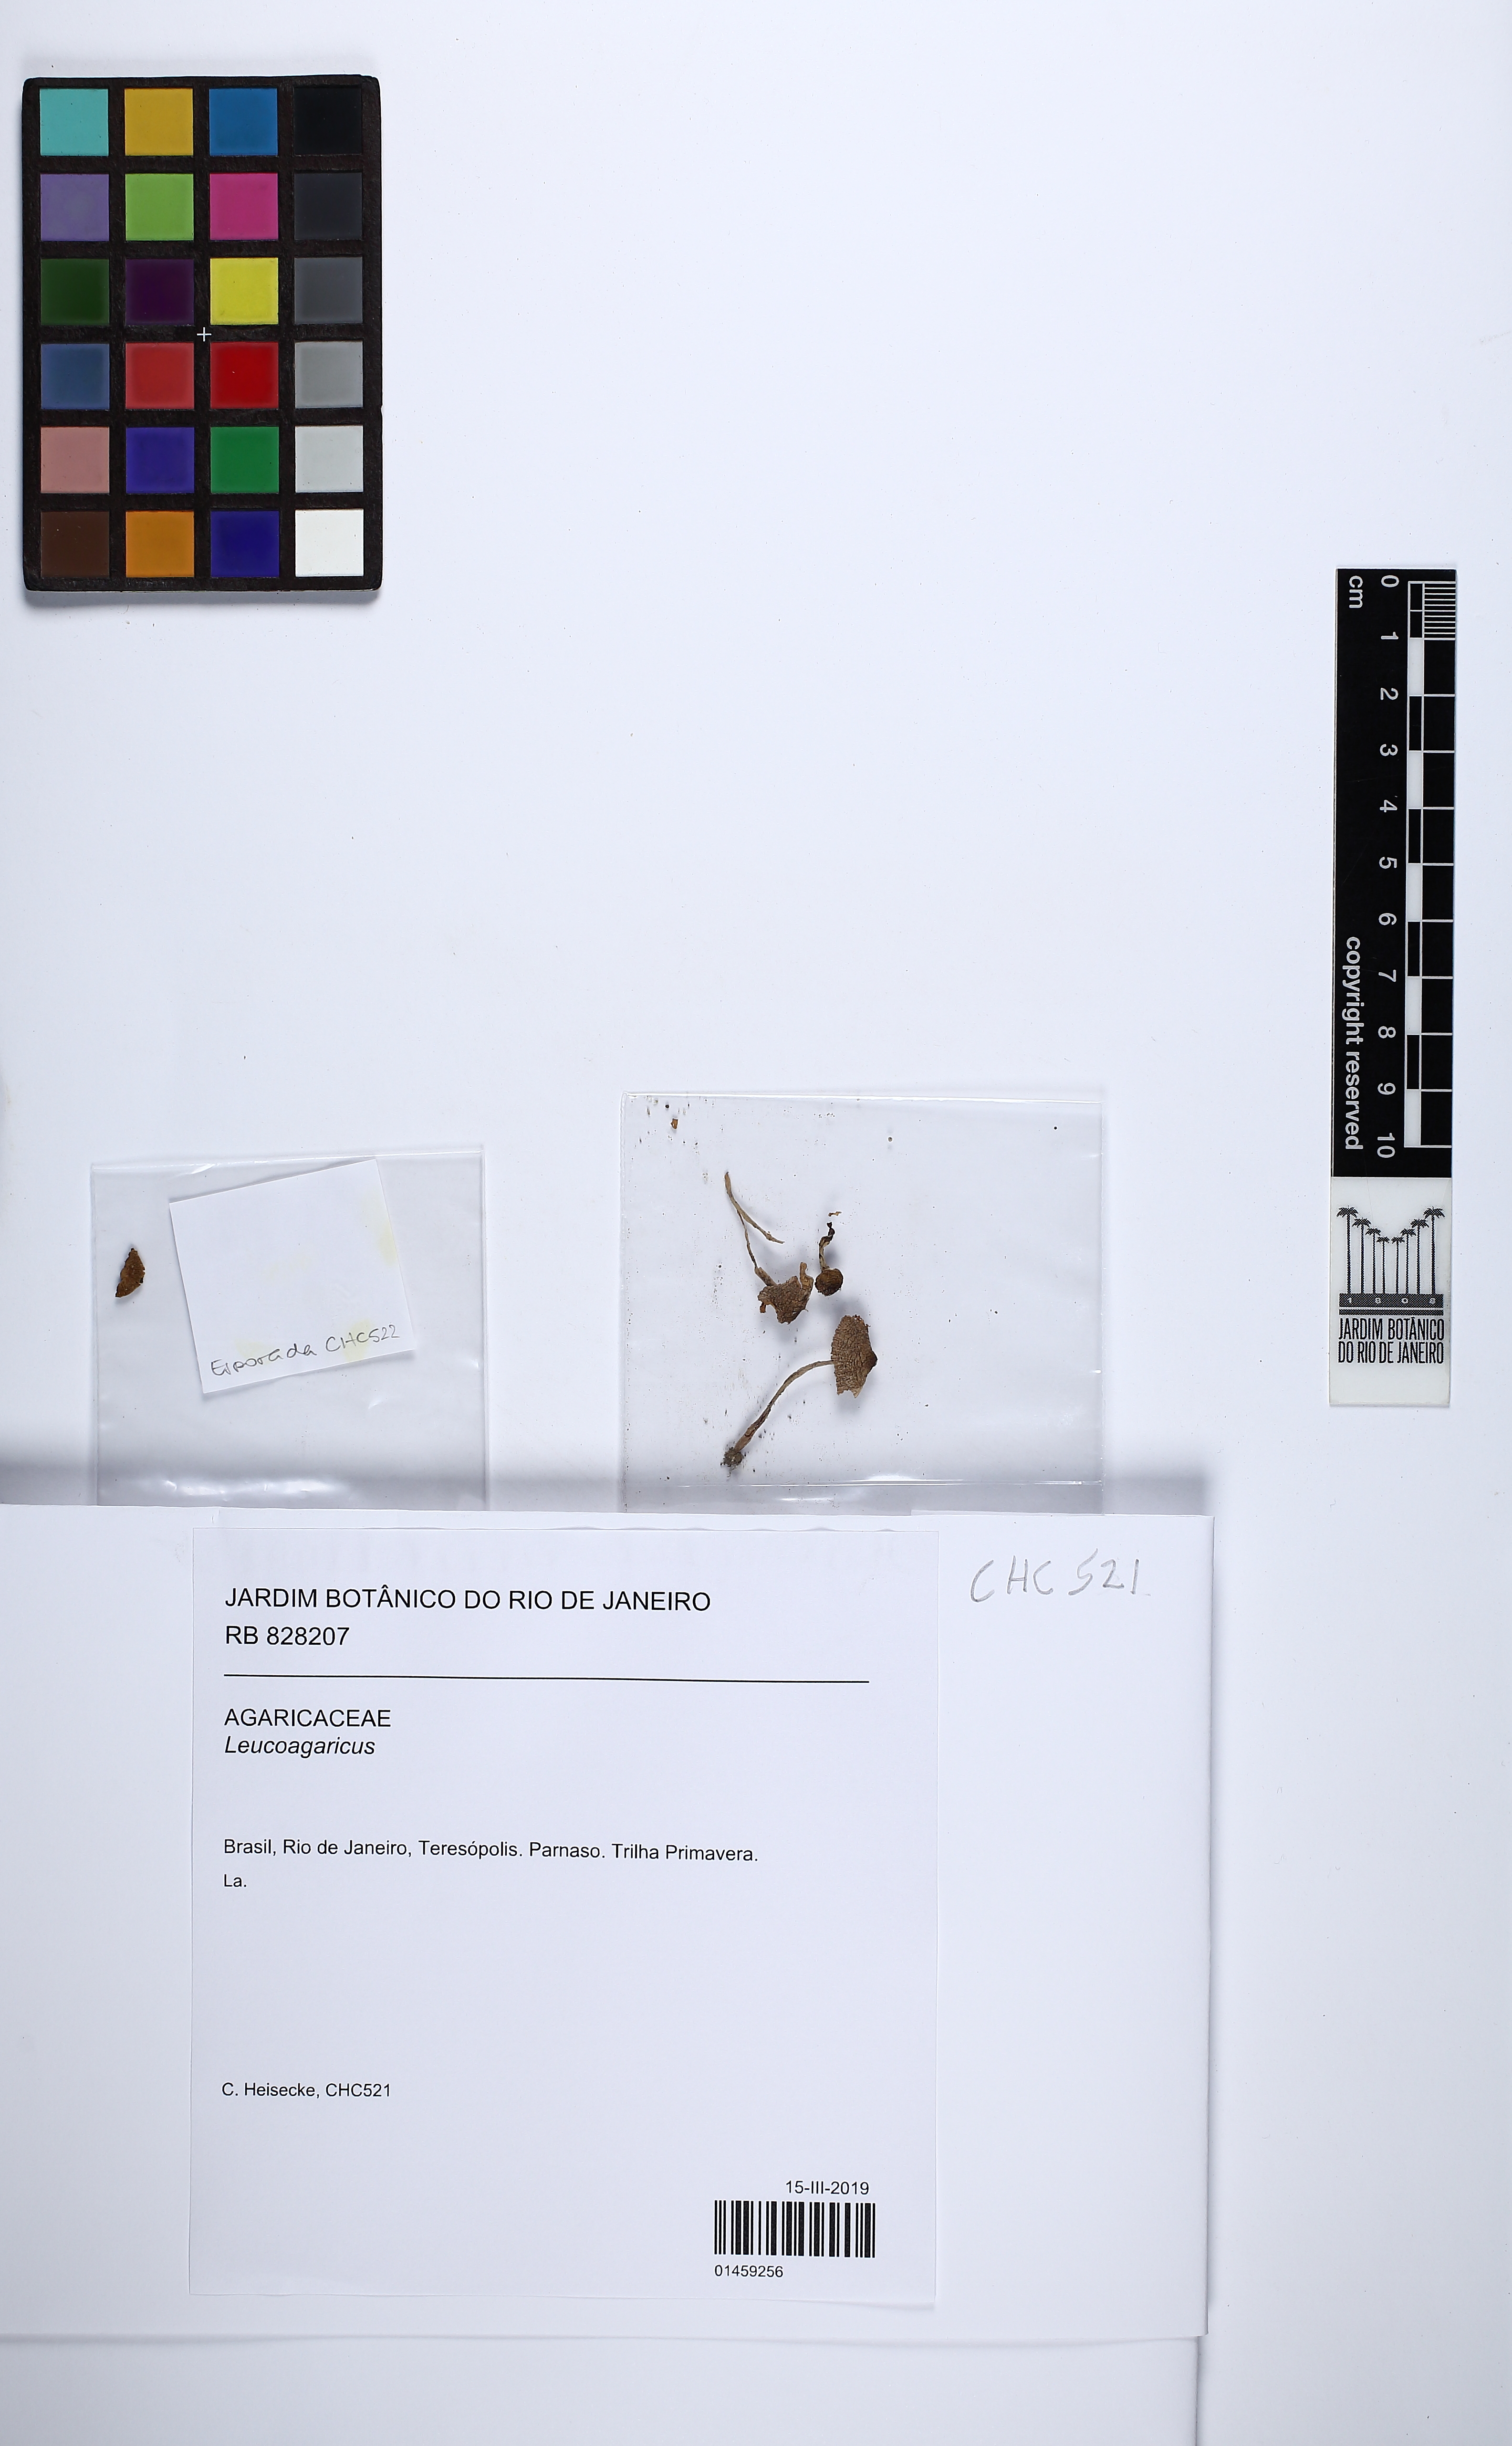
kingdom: Fungi
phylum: Basidiomycota
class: Agaricomycetes
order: Agaricales
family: Agaricaceae
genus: Leucoagaricus
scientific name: Leucoagaricus
